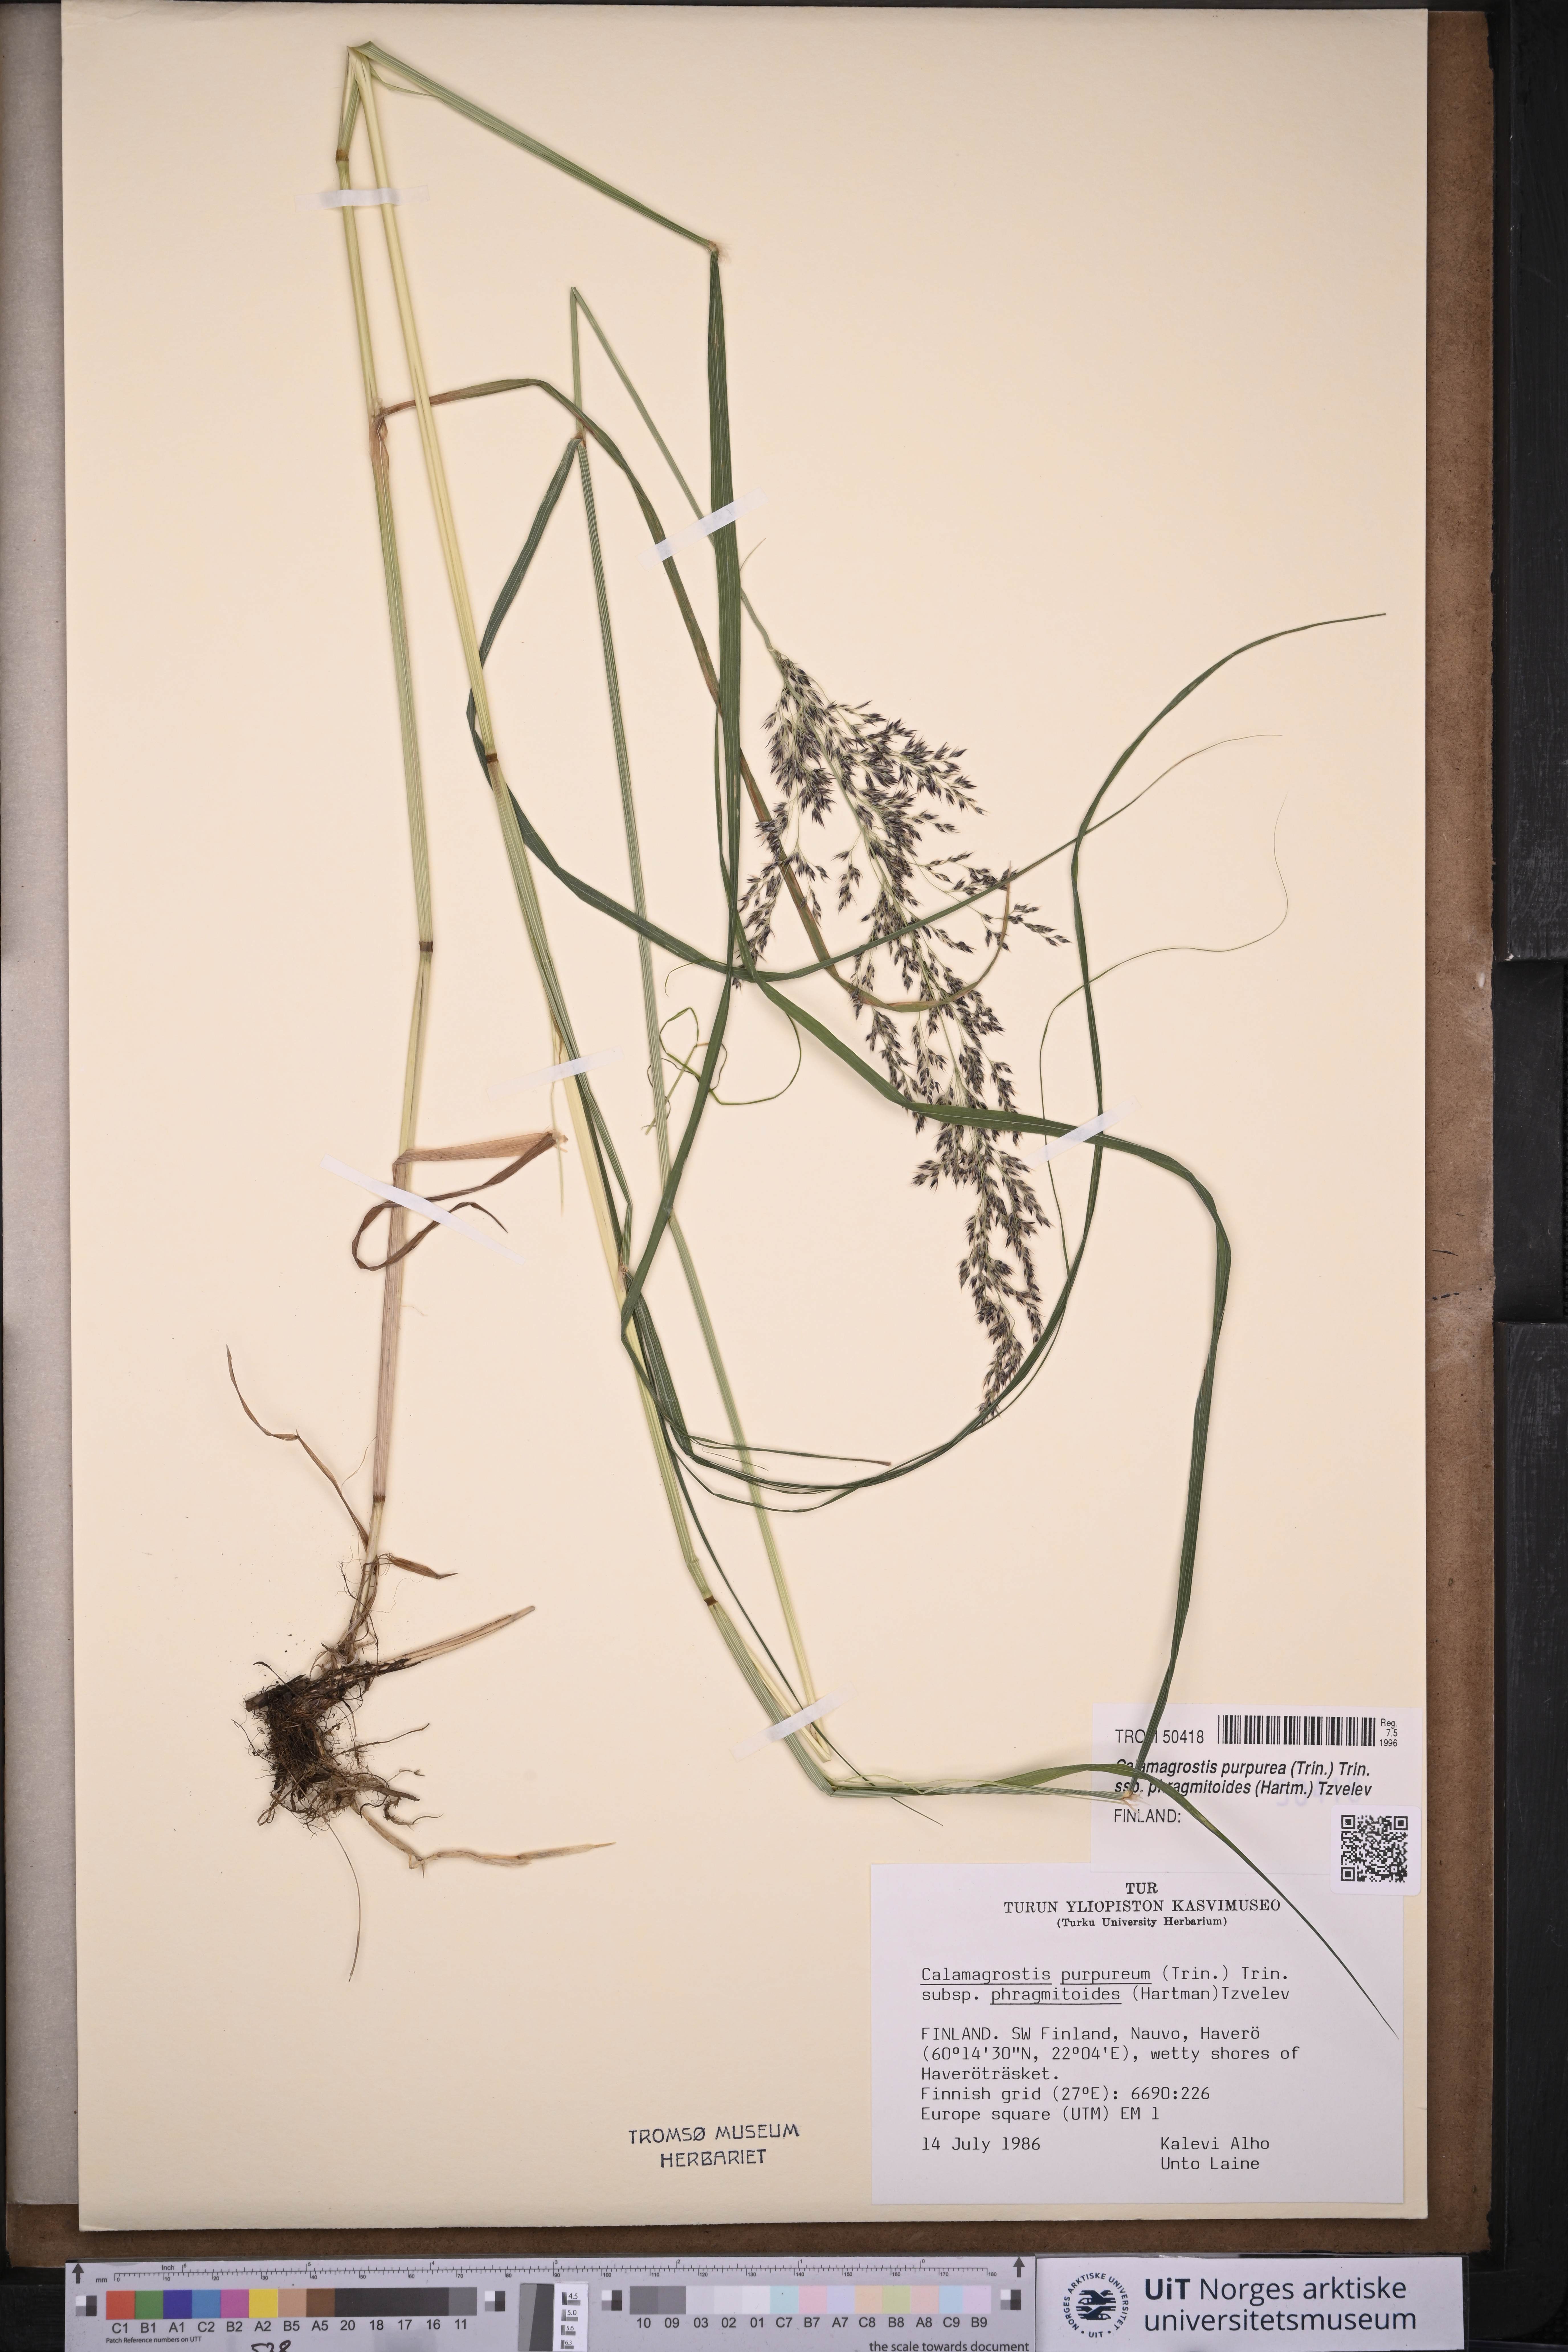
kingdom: Plantae
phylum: Tracheophyta
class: Liliopsida
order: Poales
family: Poaceae
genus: Calamagrostis
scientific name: Calamagrostis purpurea
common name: Scandinavian small-reed
